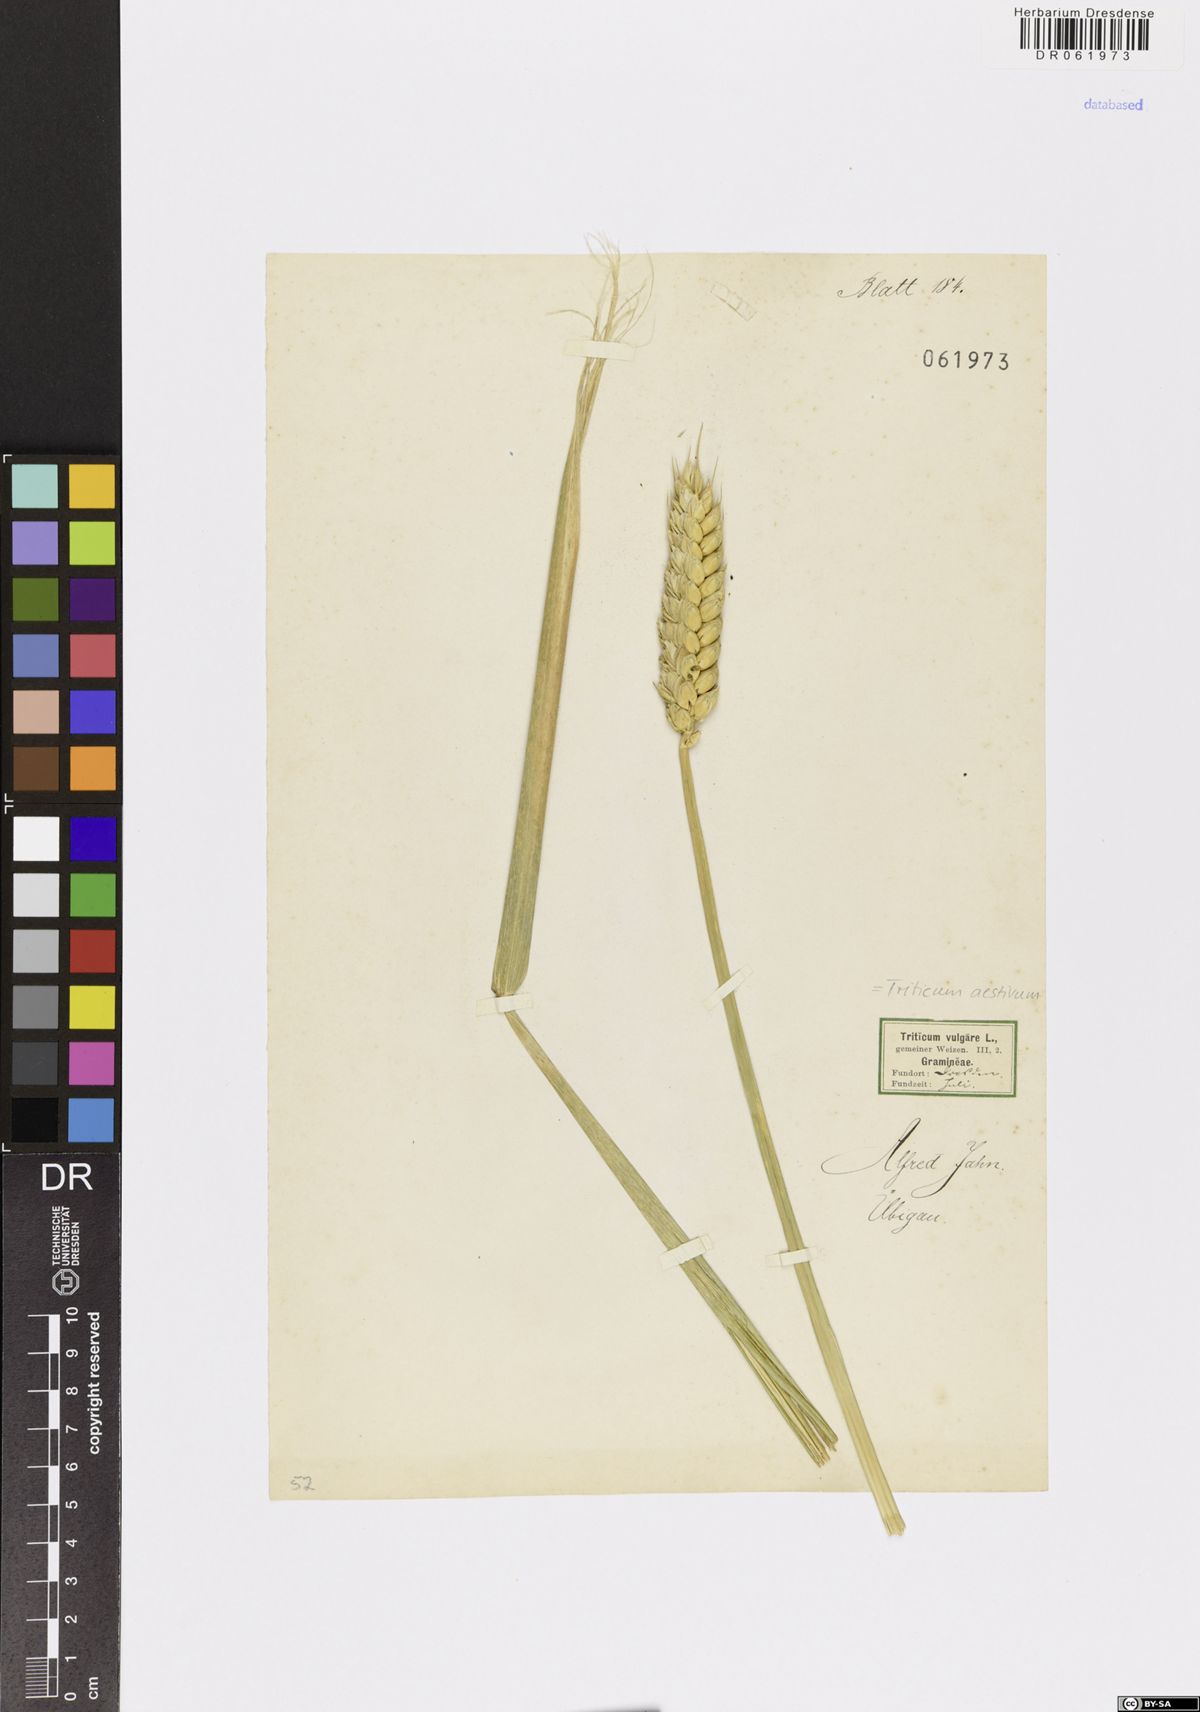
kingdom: Plantae
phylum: Tracheophyta
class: Liliopsida
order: Poales
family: Poaceae
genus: Triticum
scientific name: Triticum aestivum
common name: Common wheat
